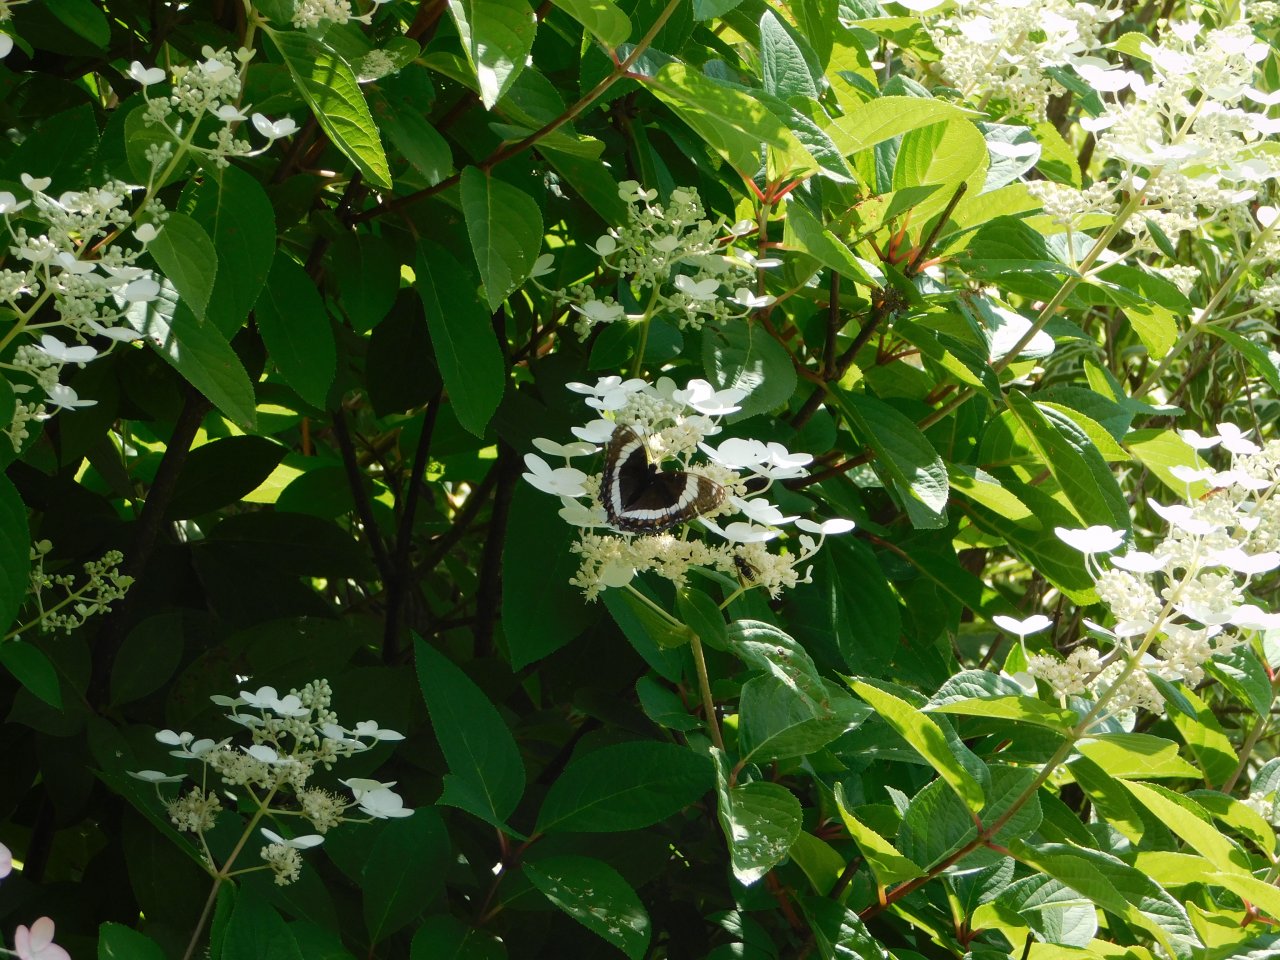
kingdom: Animalia
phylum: Arthropoda
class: Insecta
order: Lepidoptera
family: Nymphalidae
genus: Limenitis
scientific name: Limenitis arthemis
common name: Red-spotted Admiral
